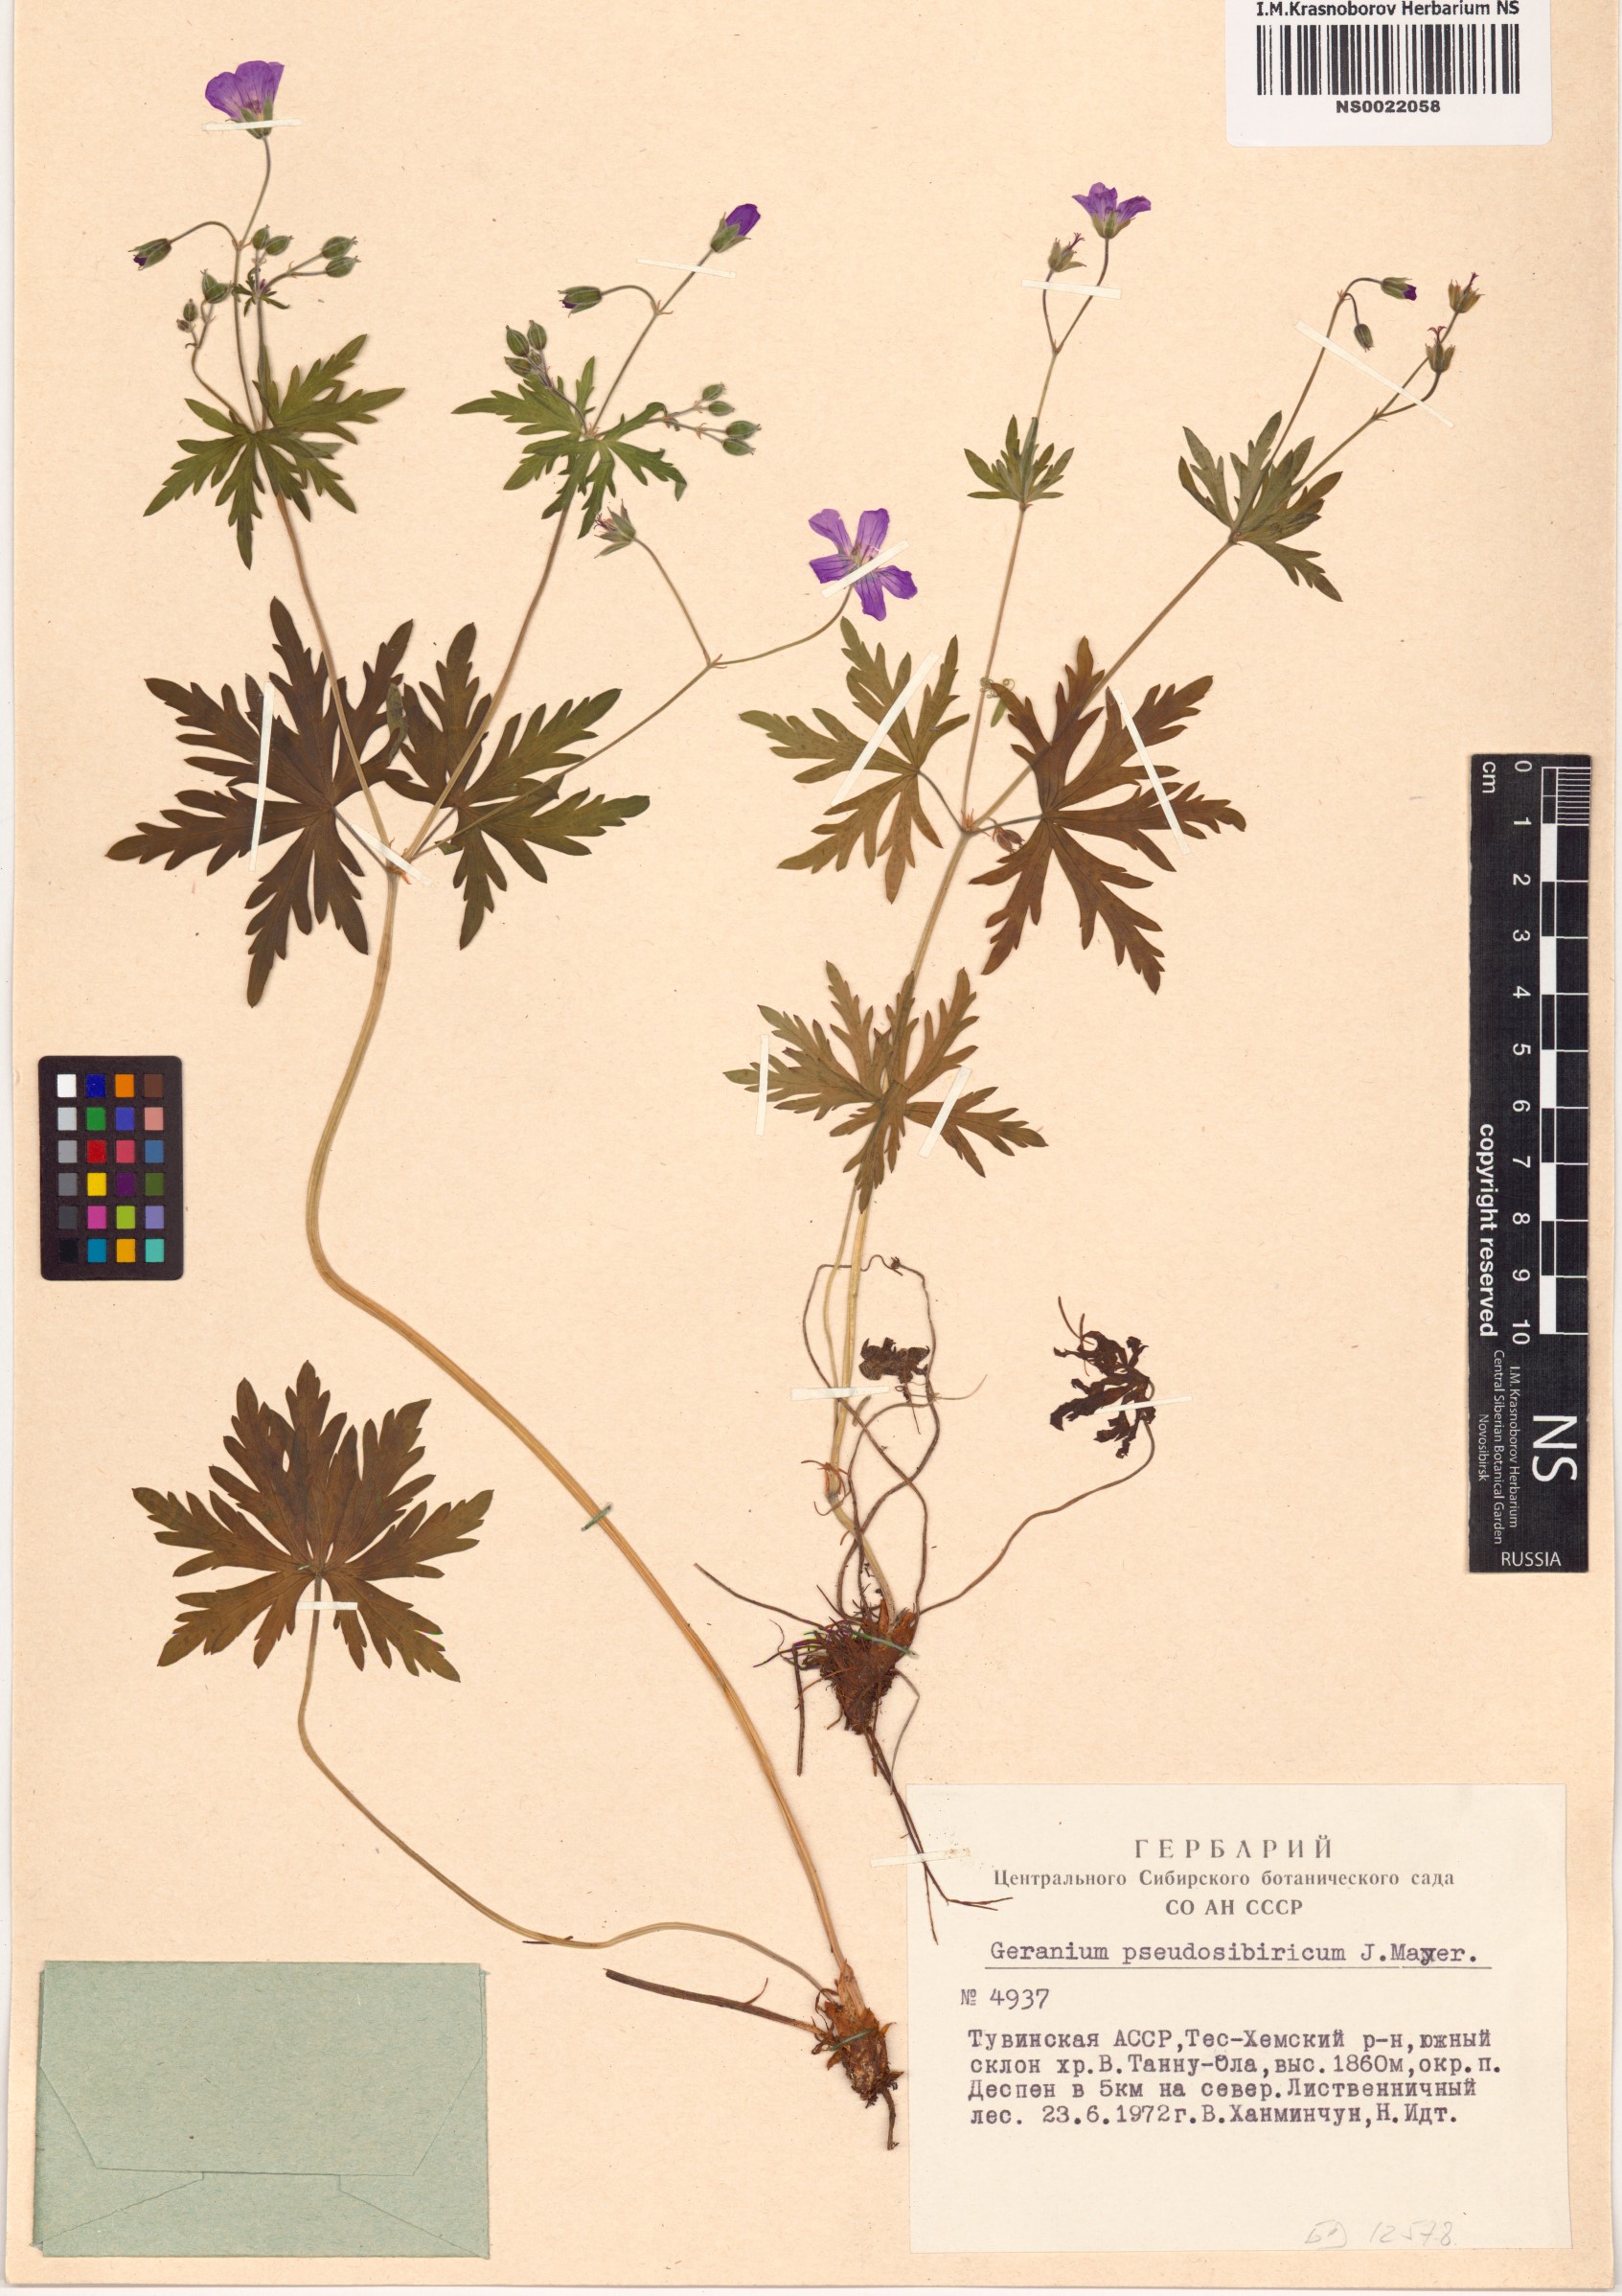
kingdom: Plantae
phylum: Tracheophyta
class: Magnoliopsida
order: Geraniales
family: Geraniaceae
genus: Geranium
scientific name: Geranium pseudosibiricum
